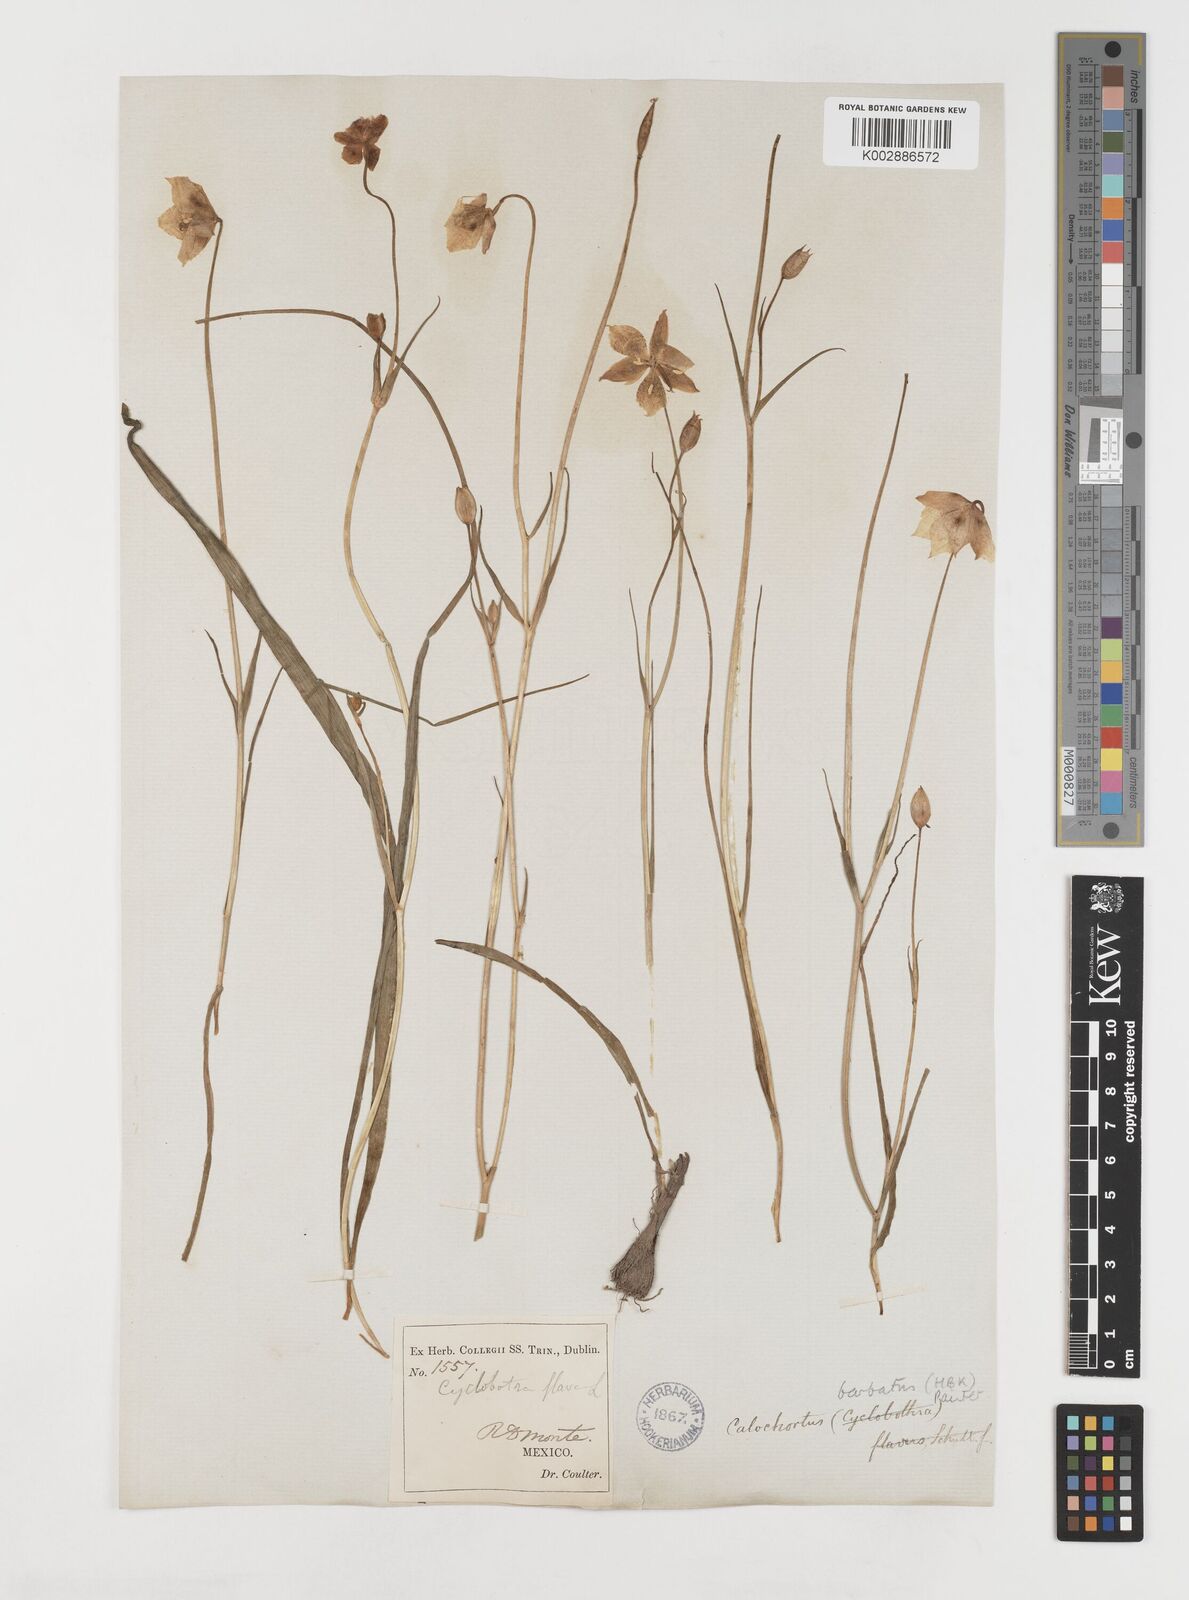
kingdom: Plantae
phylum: Tracheophyta
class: Liliopsida
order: Liliales
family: Liliaceae
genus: Calochortus
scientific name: Calochortus barbatus
